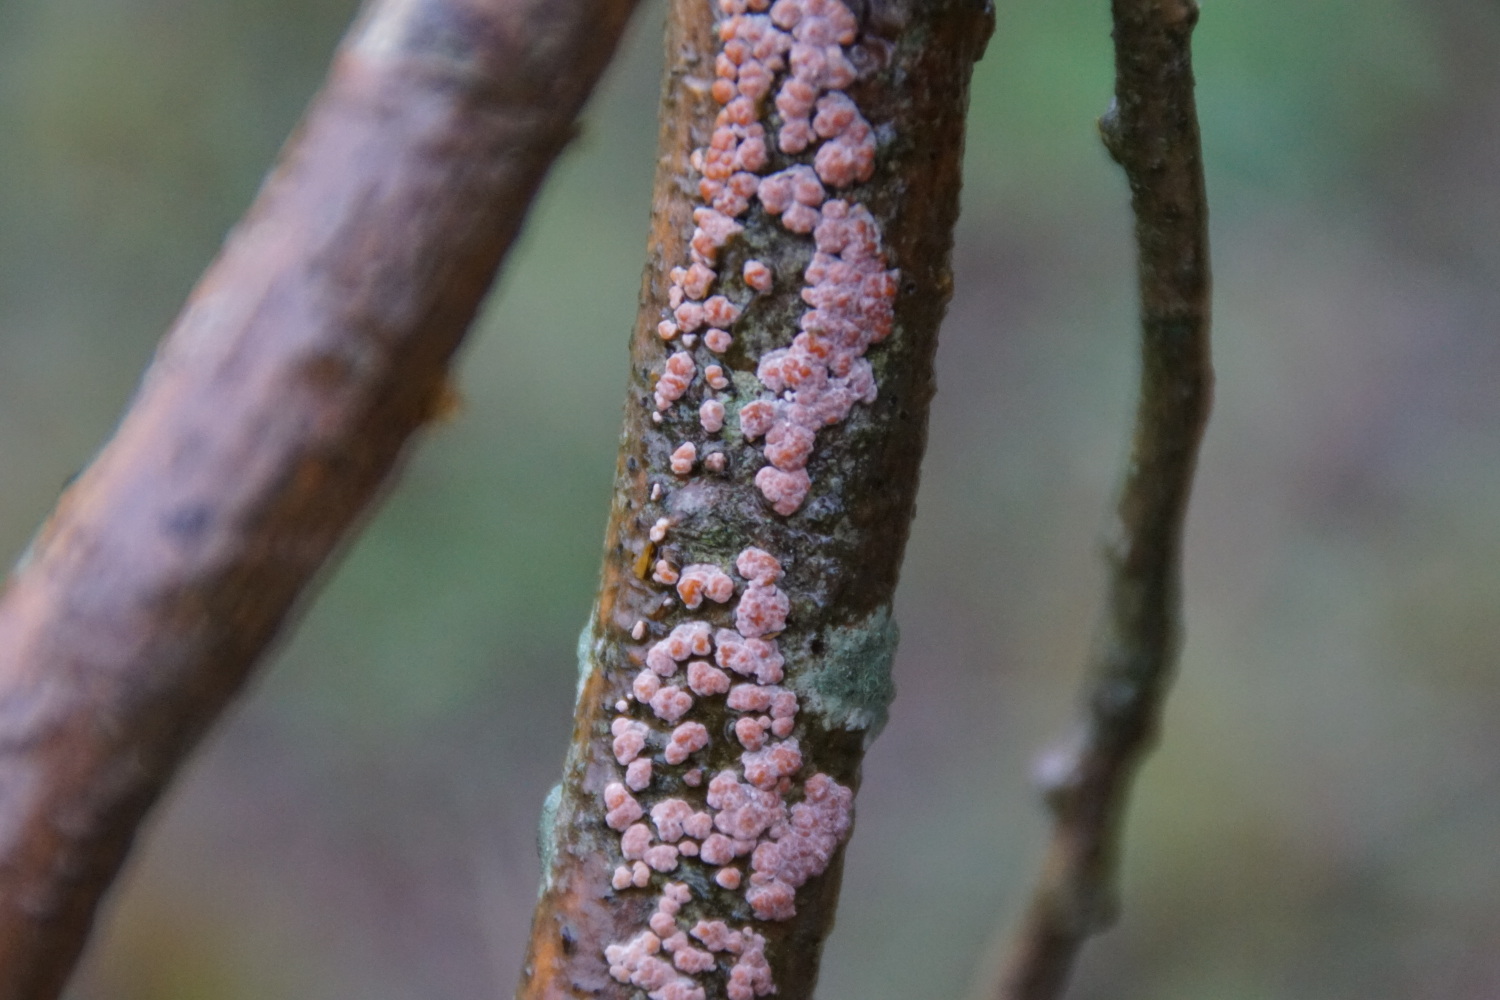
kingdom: Fungi
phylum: Basidiomycota
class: Agaricomycetes
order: Russulales
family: Peniophoraceae
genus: Peniophora
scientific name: Peniophora polygonia
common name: polygon-voksskind
